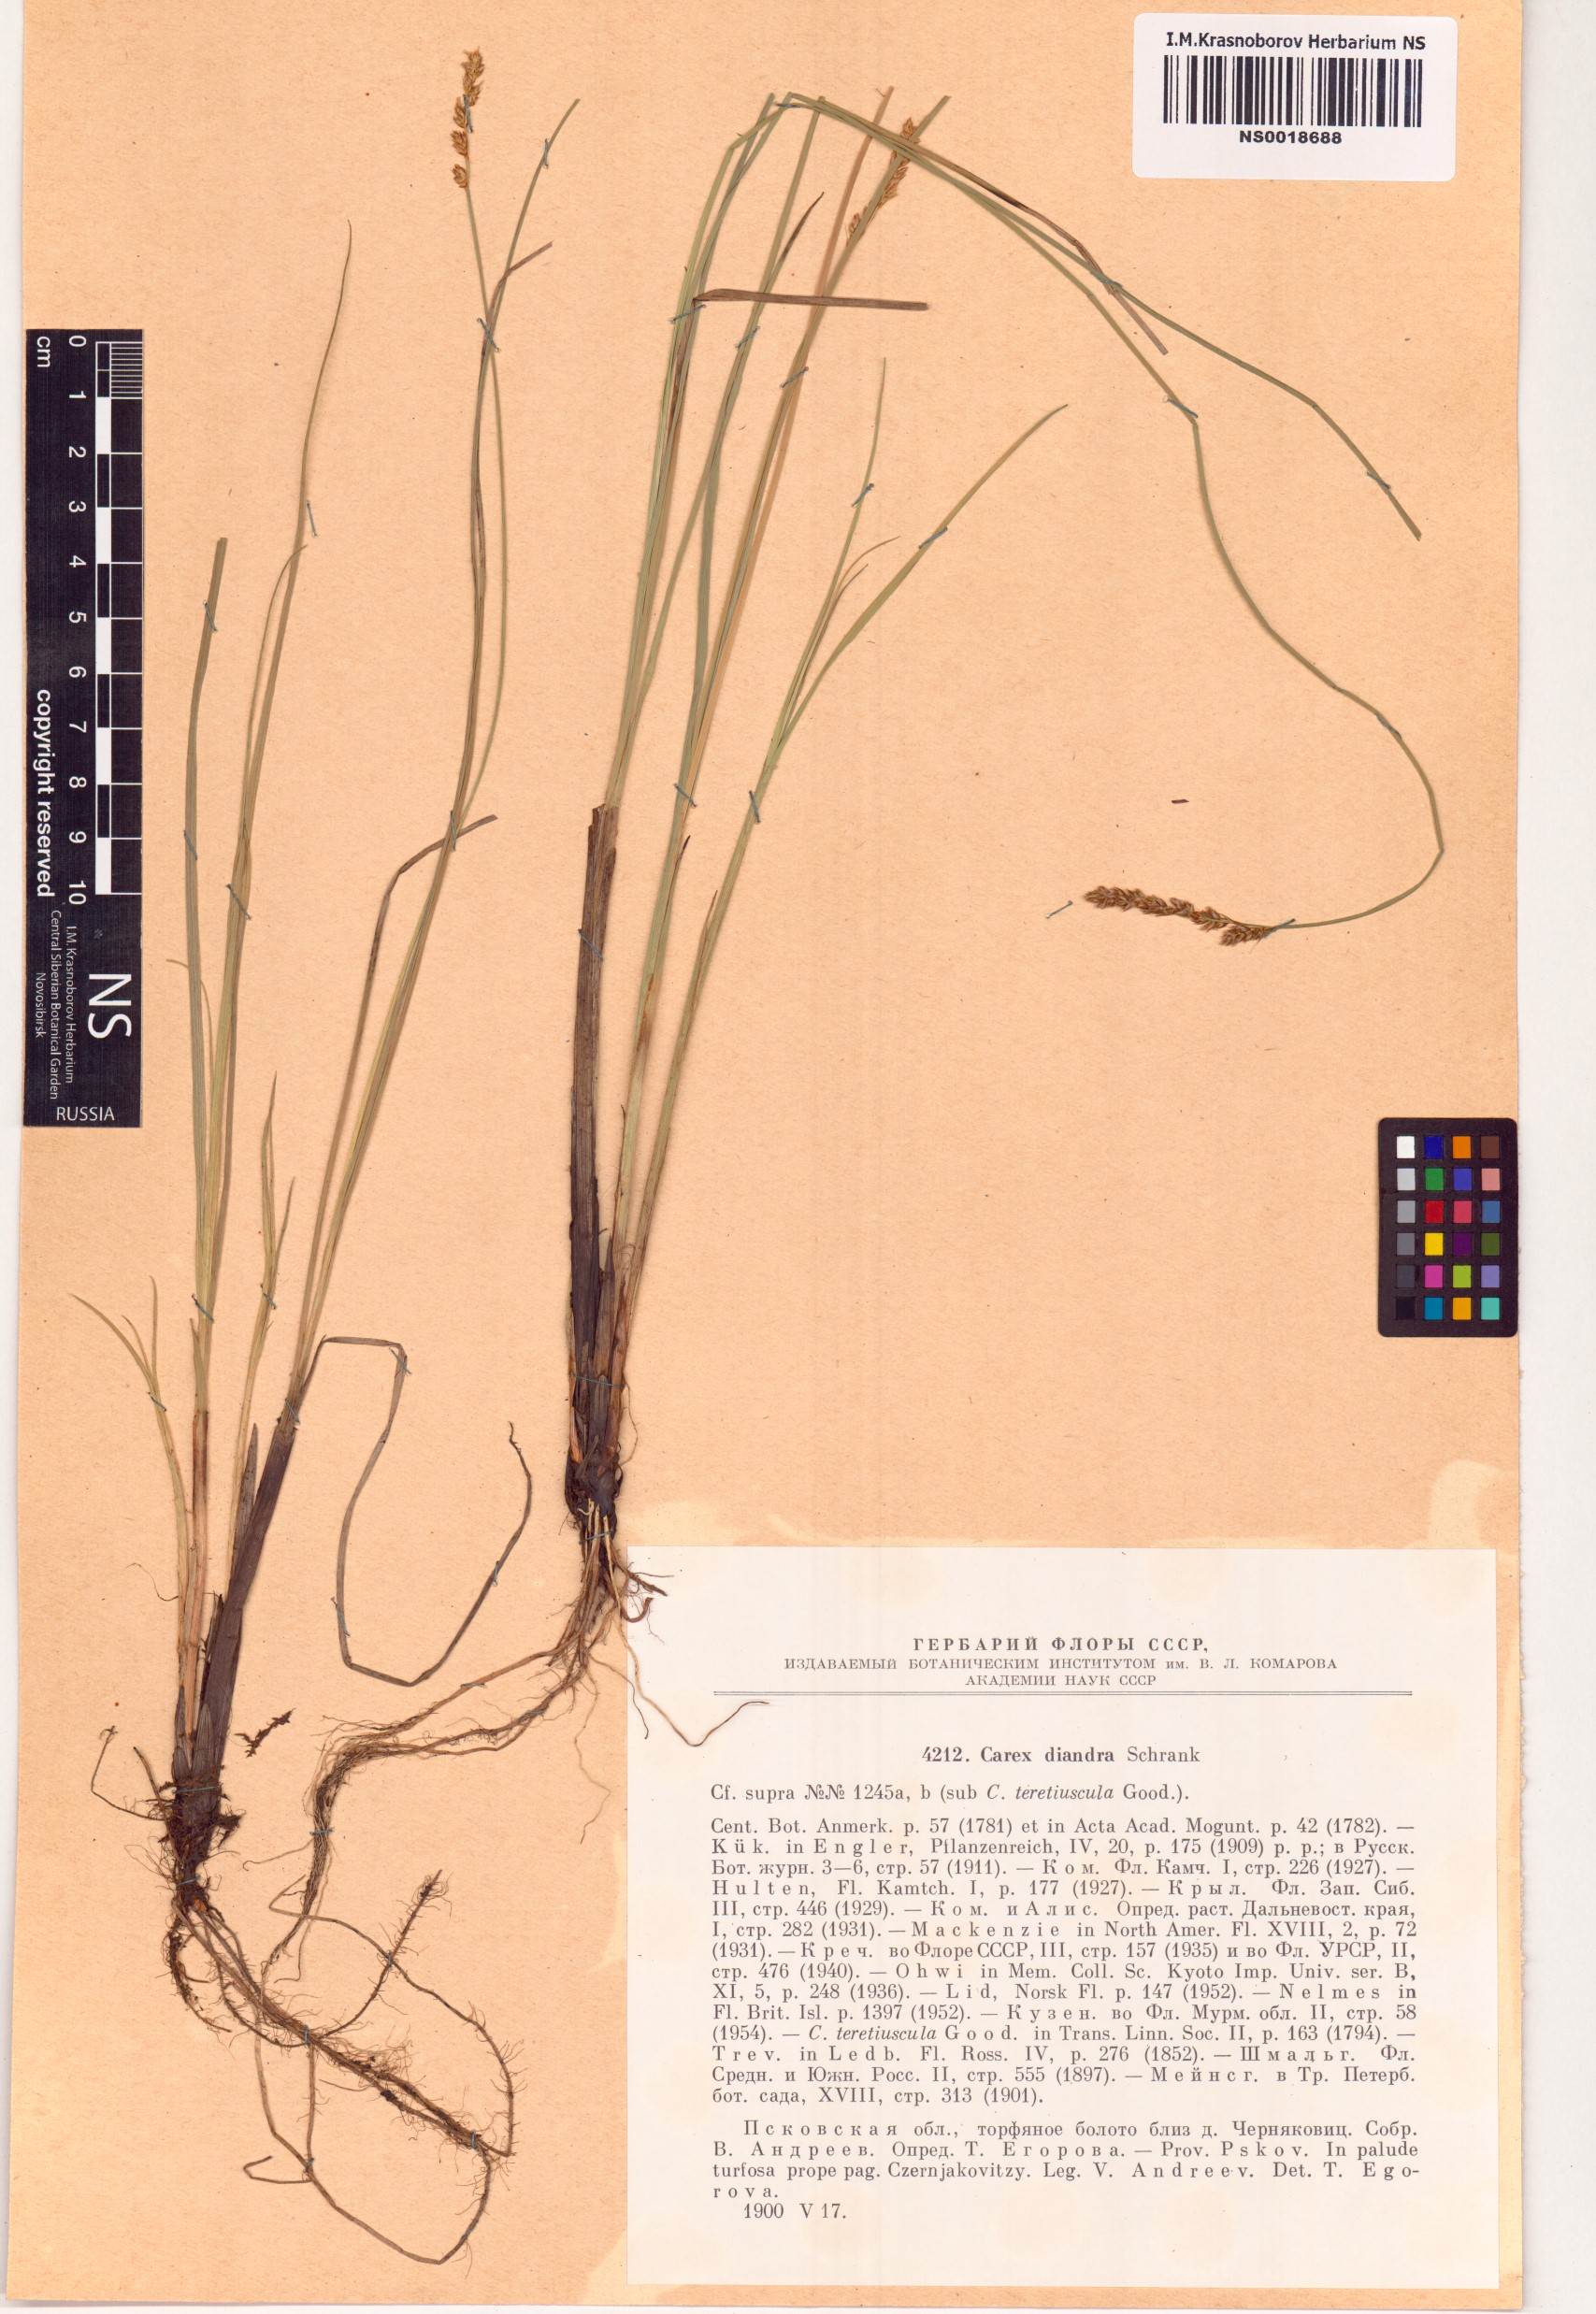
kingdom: Plantae
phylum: Tracheophyta
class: Liliopsida
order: Poales
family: Cyperaceae
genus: Carex
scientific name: Carex diandra
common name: Lesser tussock-sedge
